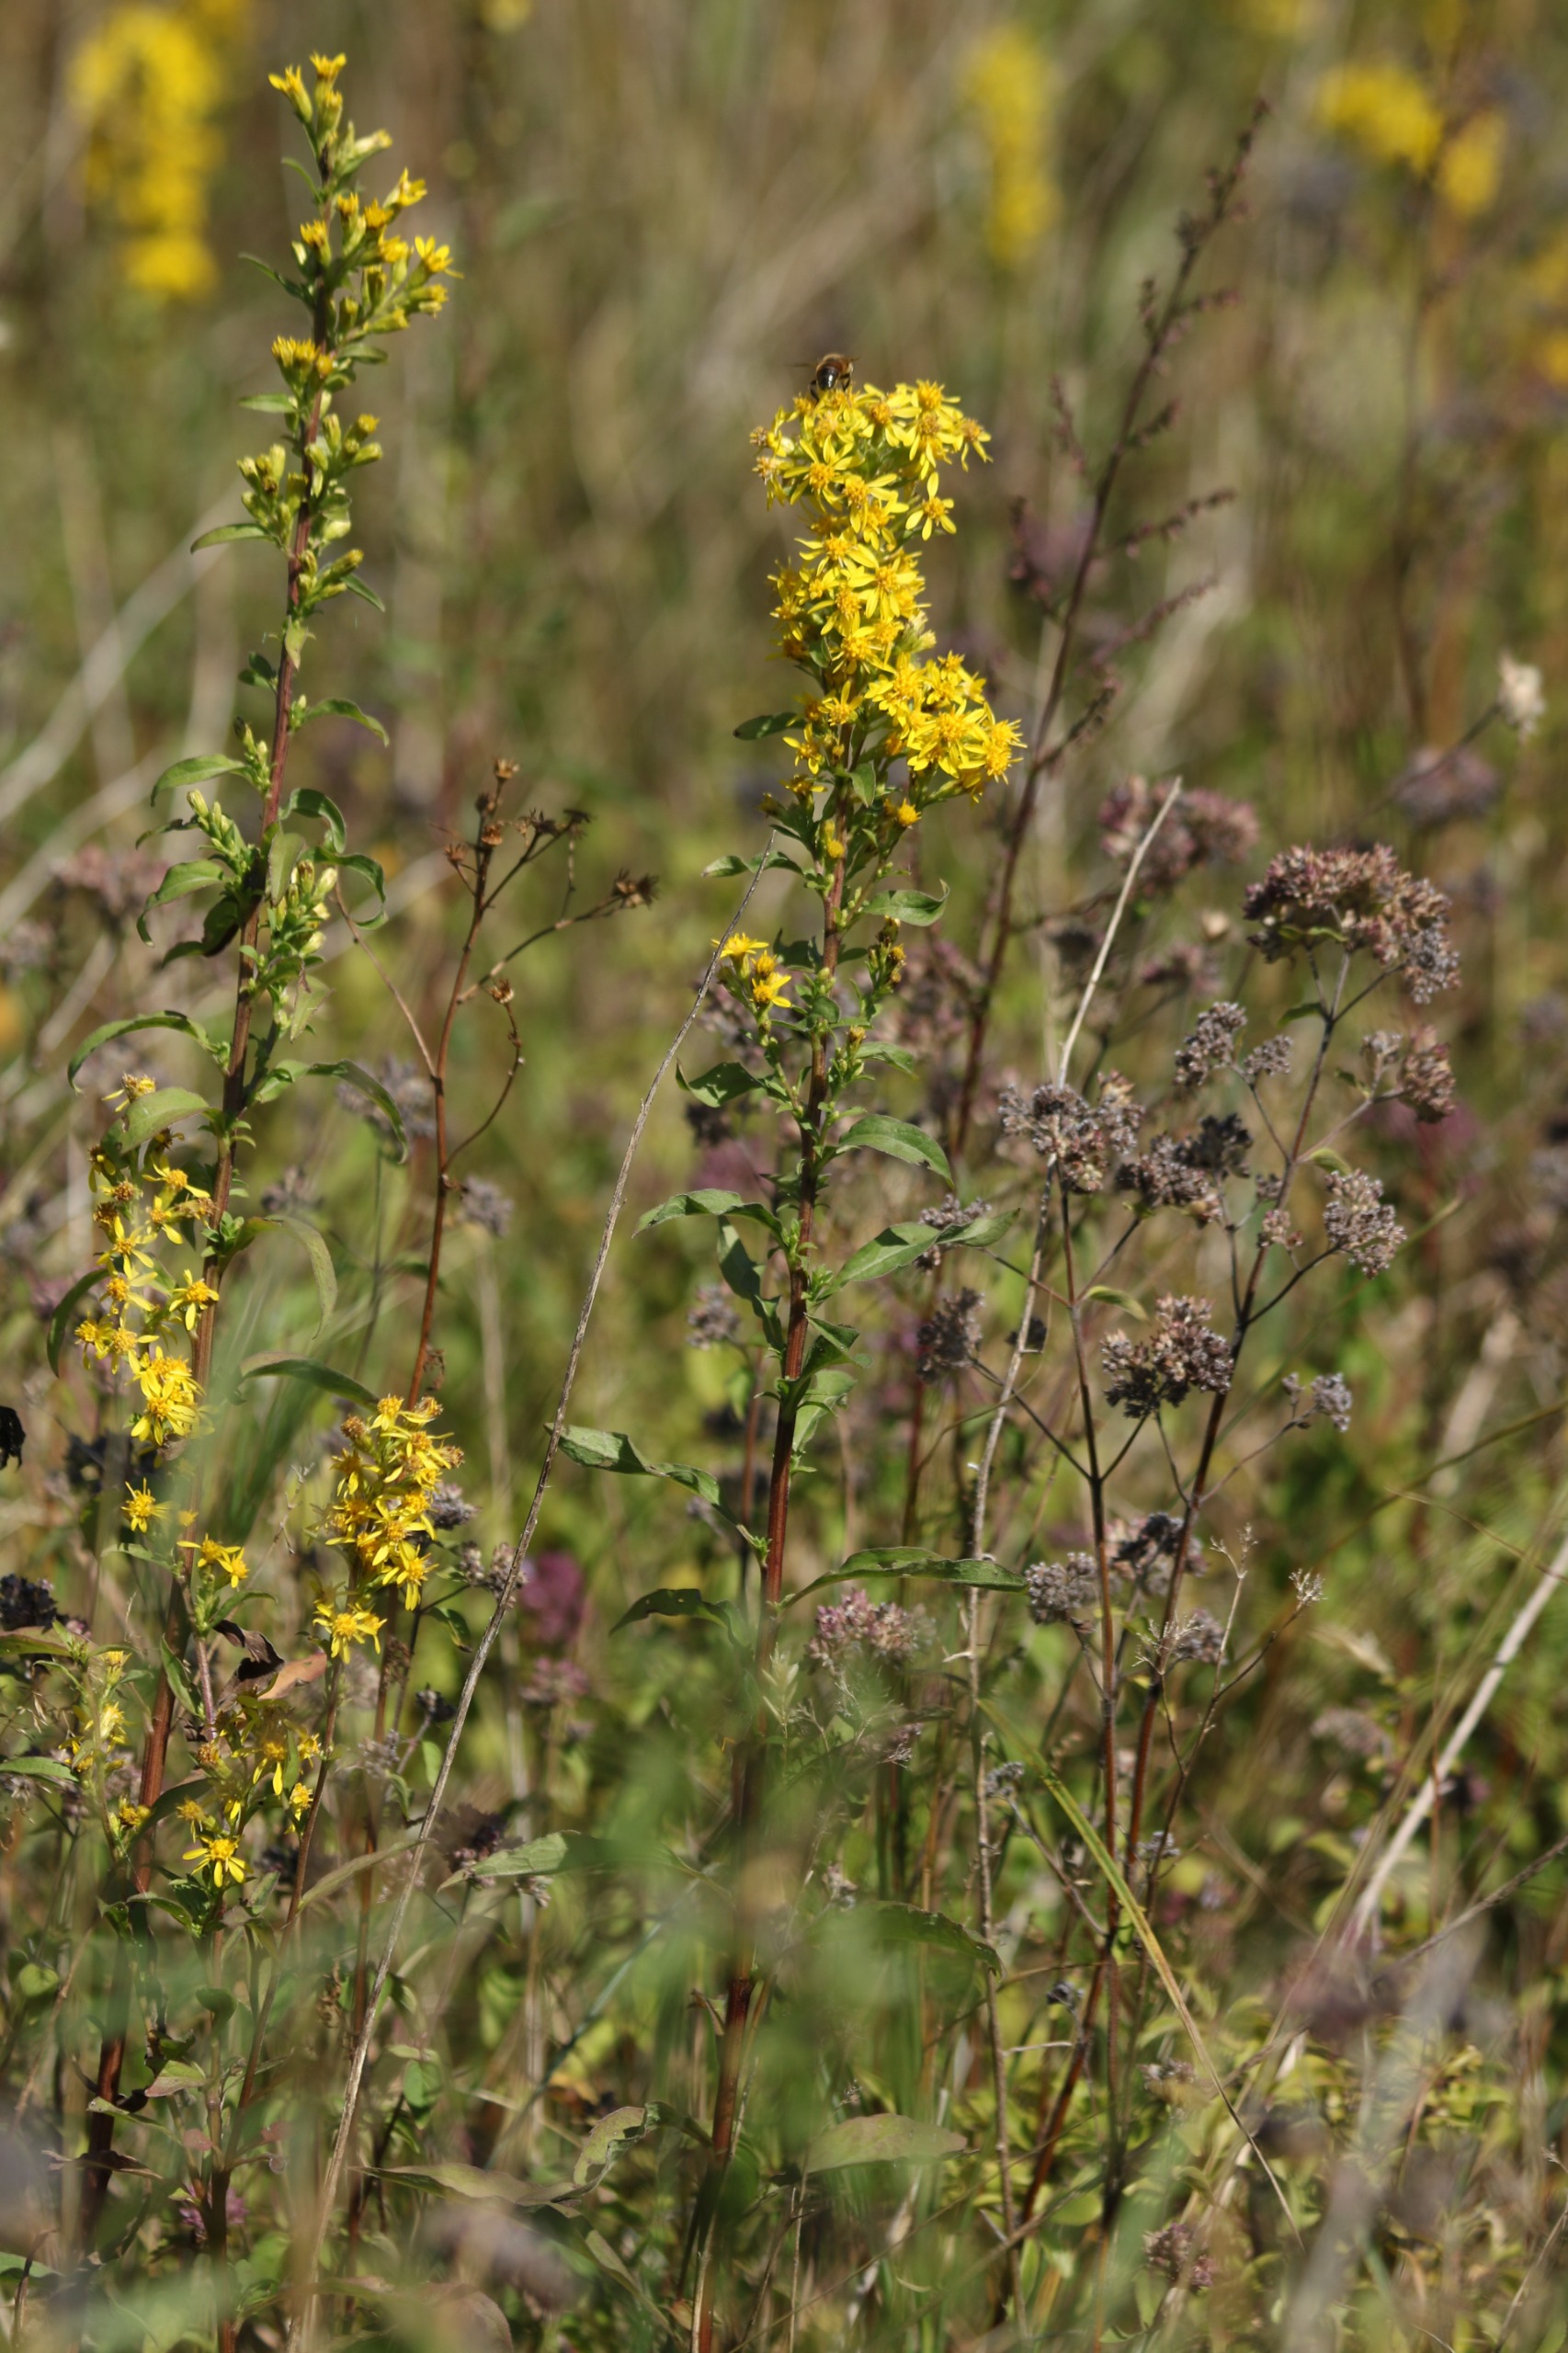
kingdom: Plantae
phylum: Tracheophyta
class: Magnoliopsida
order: Asterales
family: Asteraceae
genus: Solidago
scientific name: Solidago virgaurea
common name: Almindelig gyldenris
